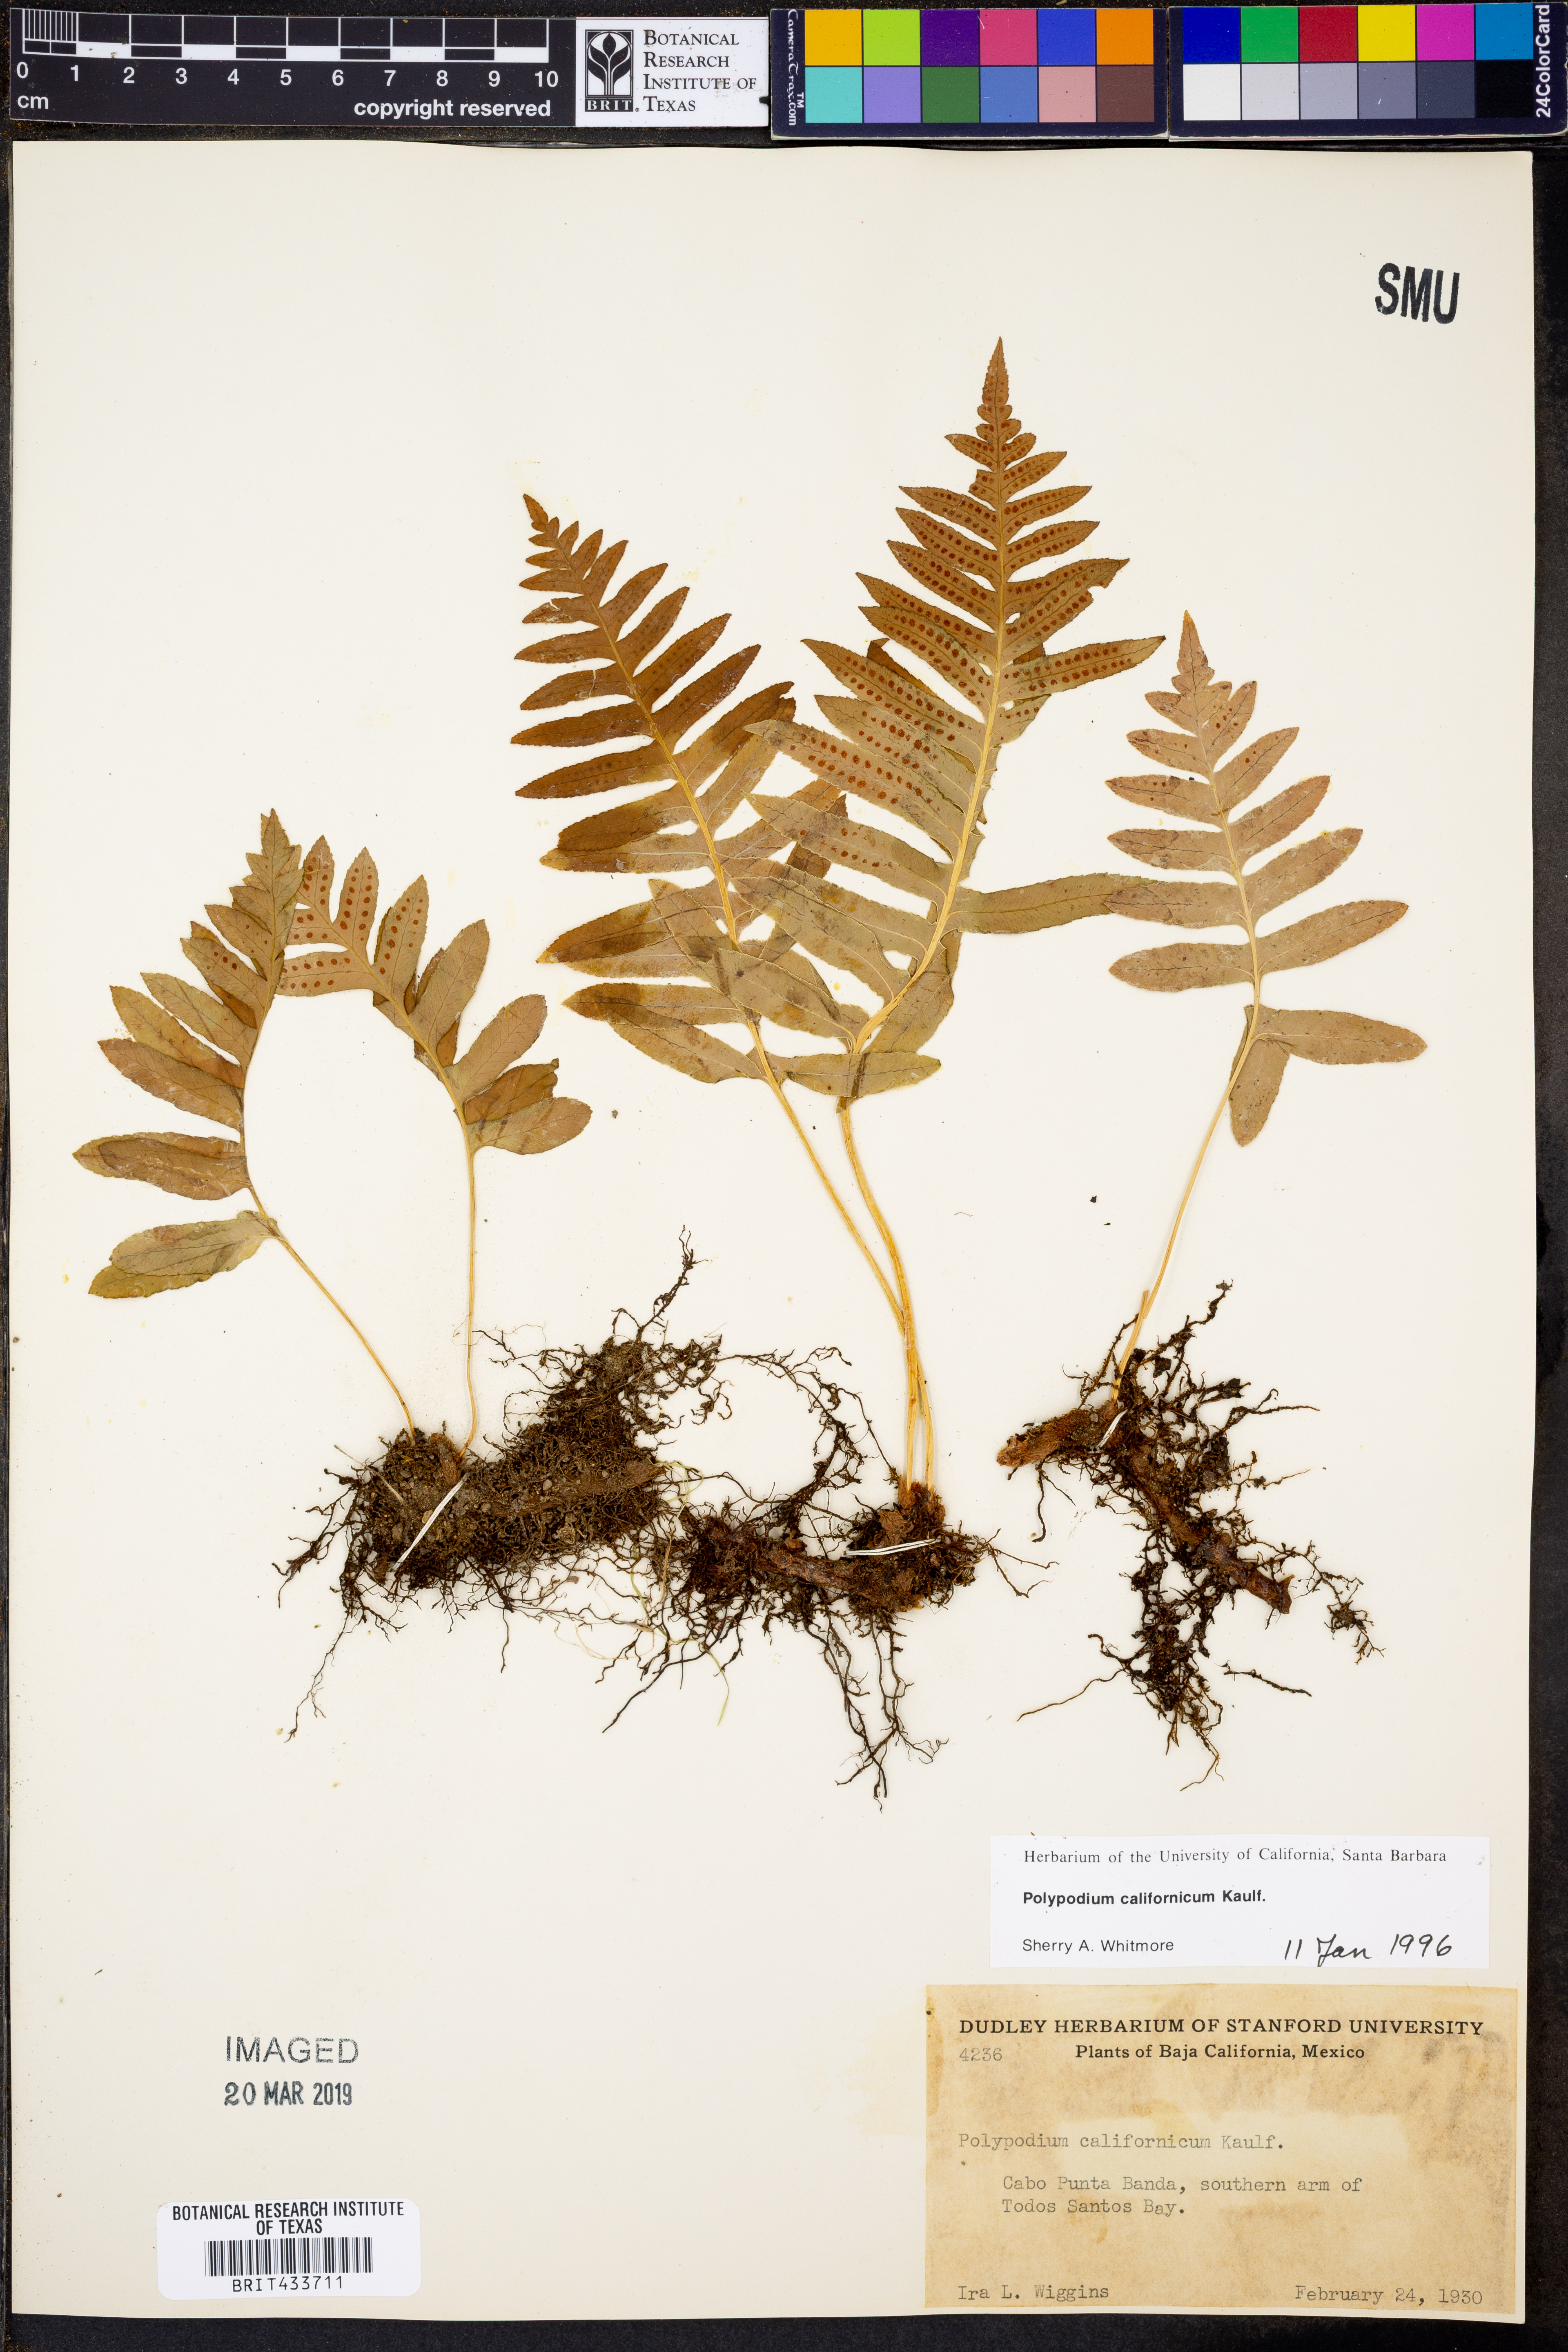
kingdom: Plantae
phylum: Tracheophyta
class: Polypodiopsida
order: Polypodiales
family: Polypodiaceae
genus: Polypodium
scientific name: Polypodium californicum
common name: California polypody
